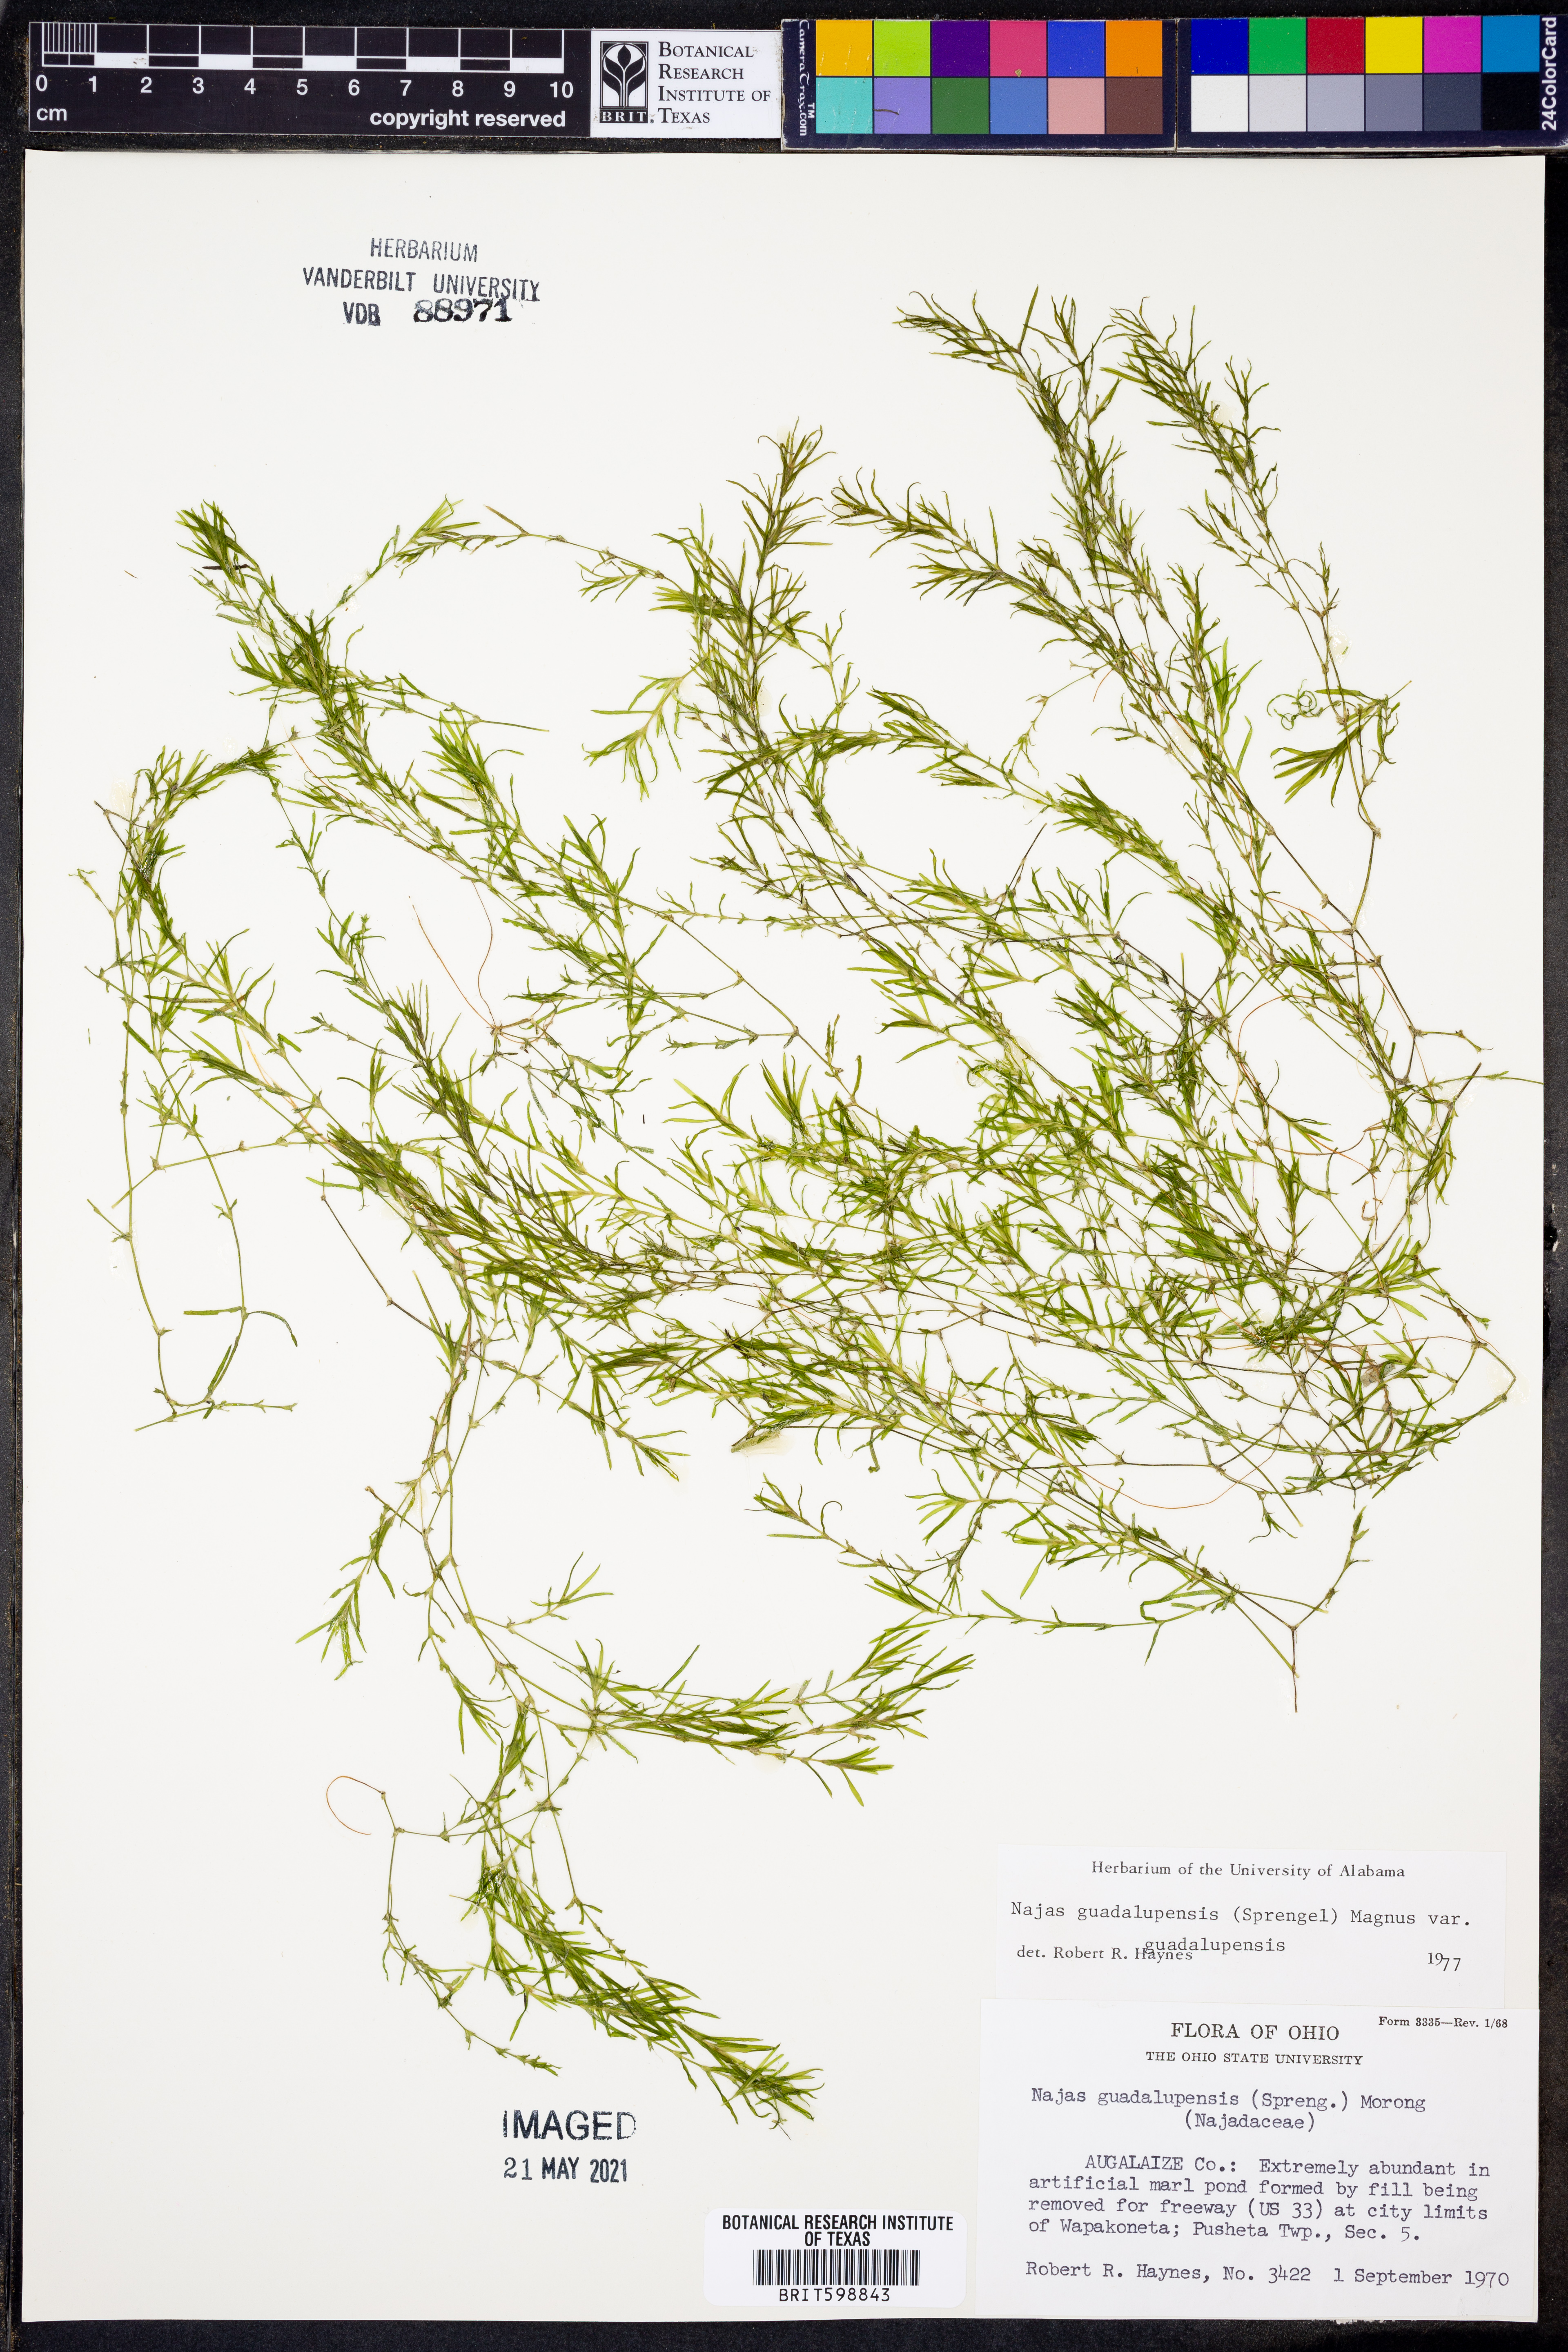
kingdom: Plantae
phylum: Tracheophyta
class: Liliopsida
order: Alismatales
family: Hydrocharitaceae
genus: Najas
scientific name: Najas guadalupensis
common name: Southern naiad
